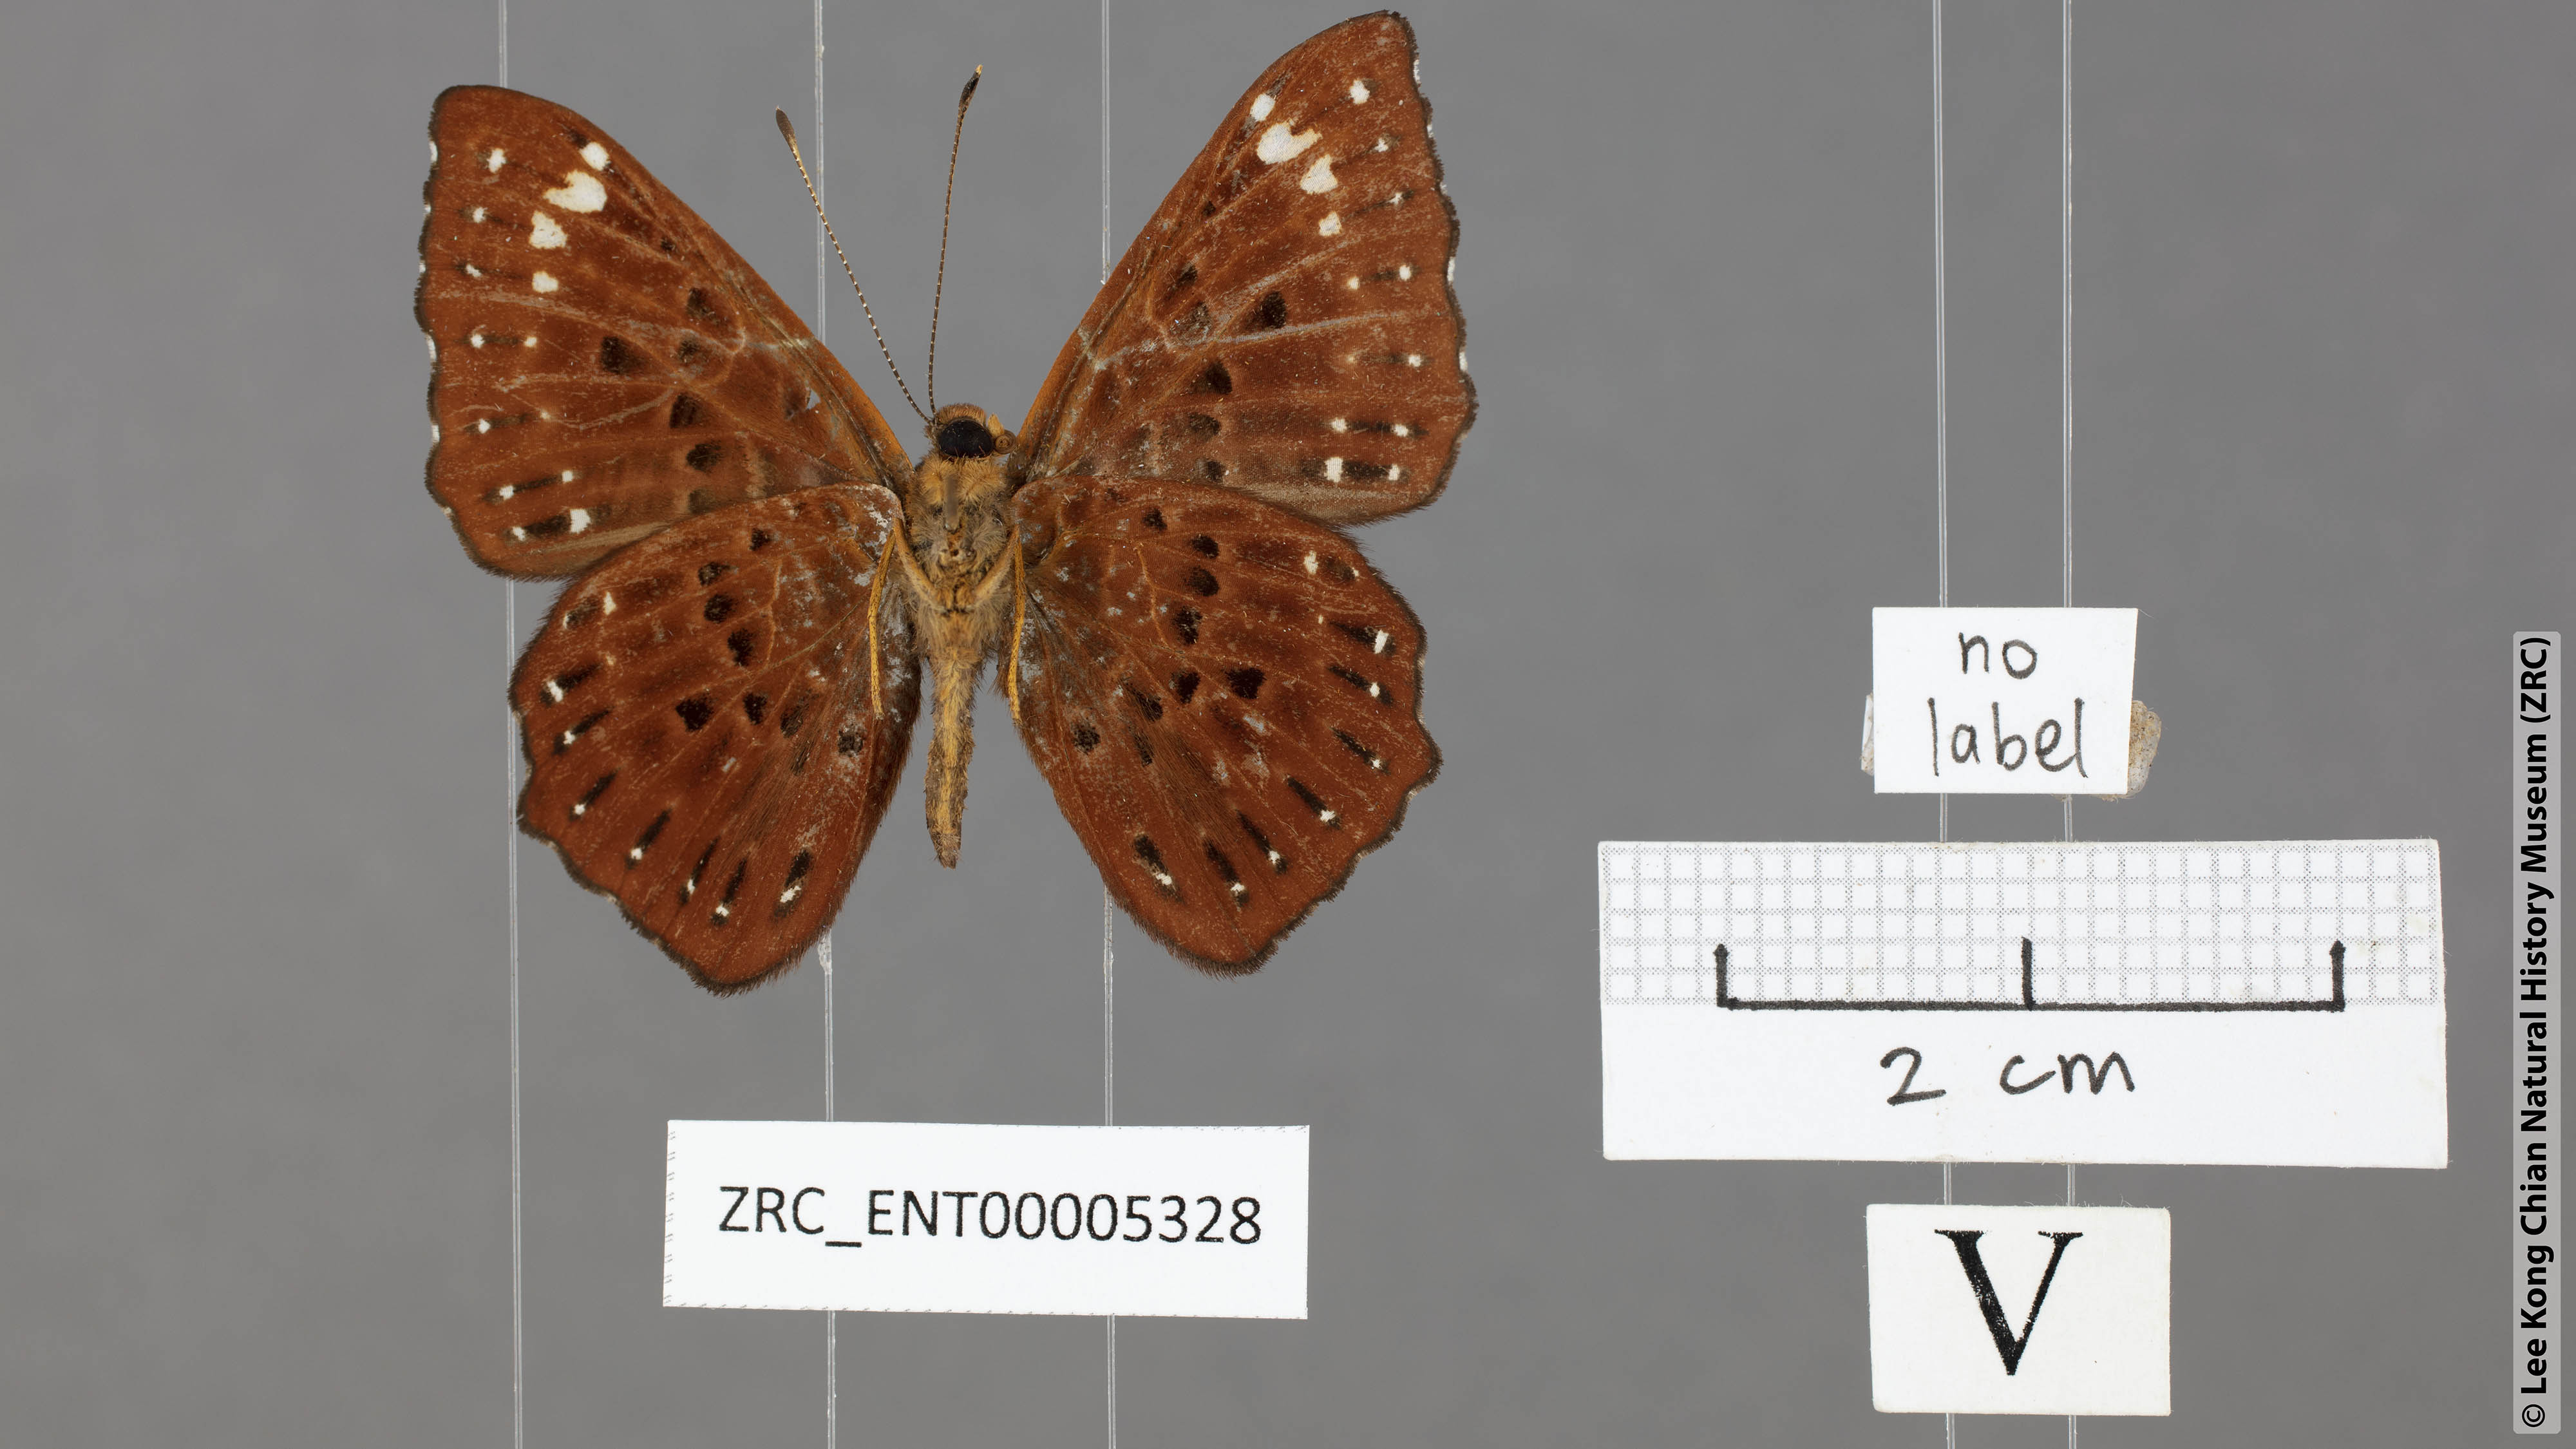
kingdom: Animalia
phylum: Arthropoda
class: Insecta
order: Lepidoptera
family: Riodinidae
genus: Zemeros
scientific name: Zemeros flegyas
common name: Punchinello
